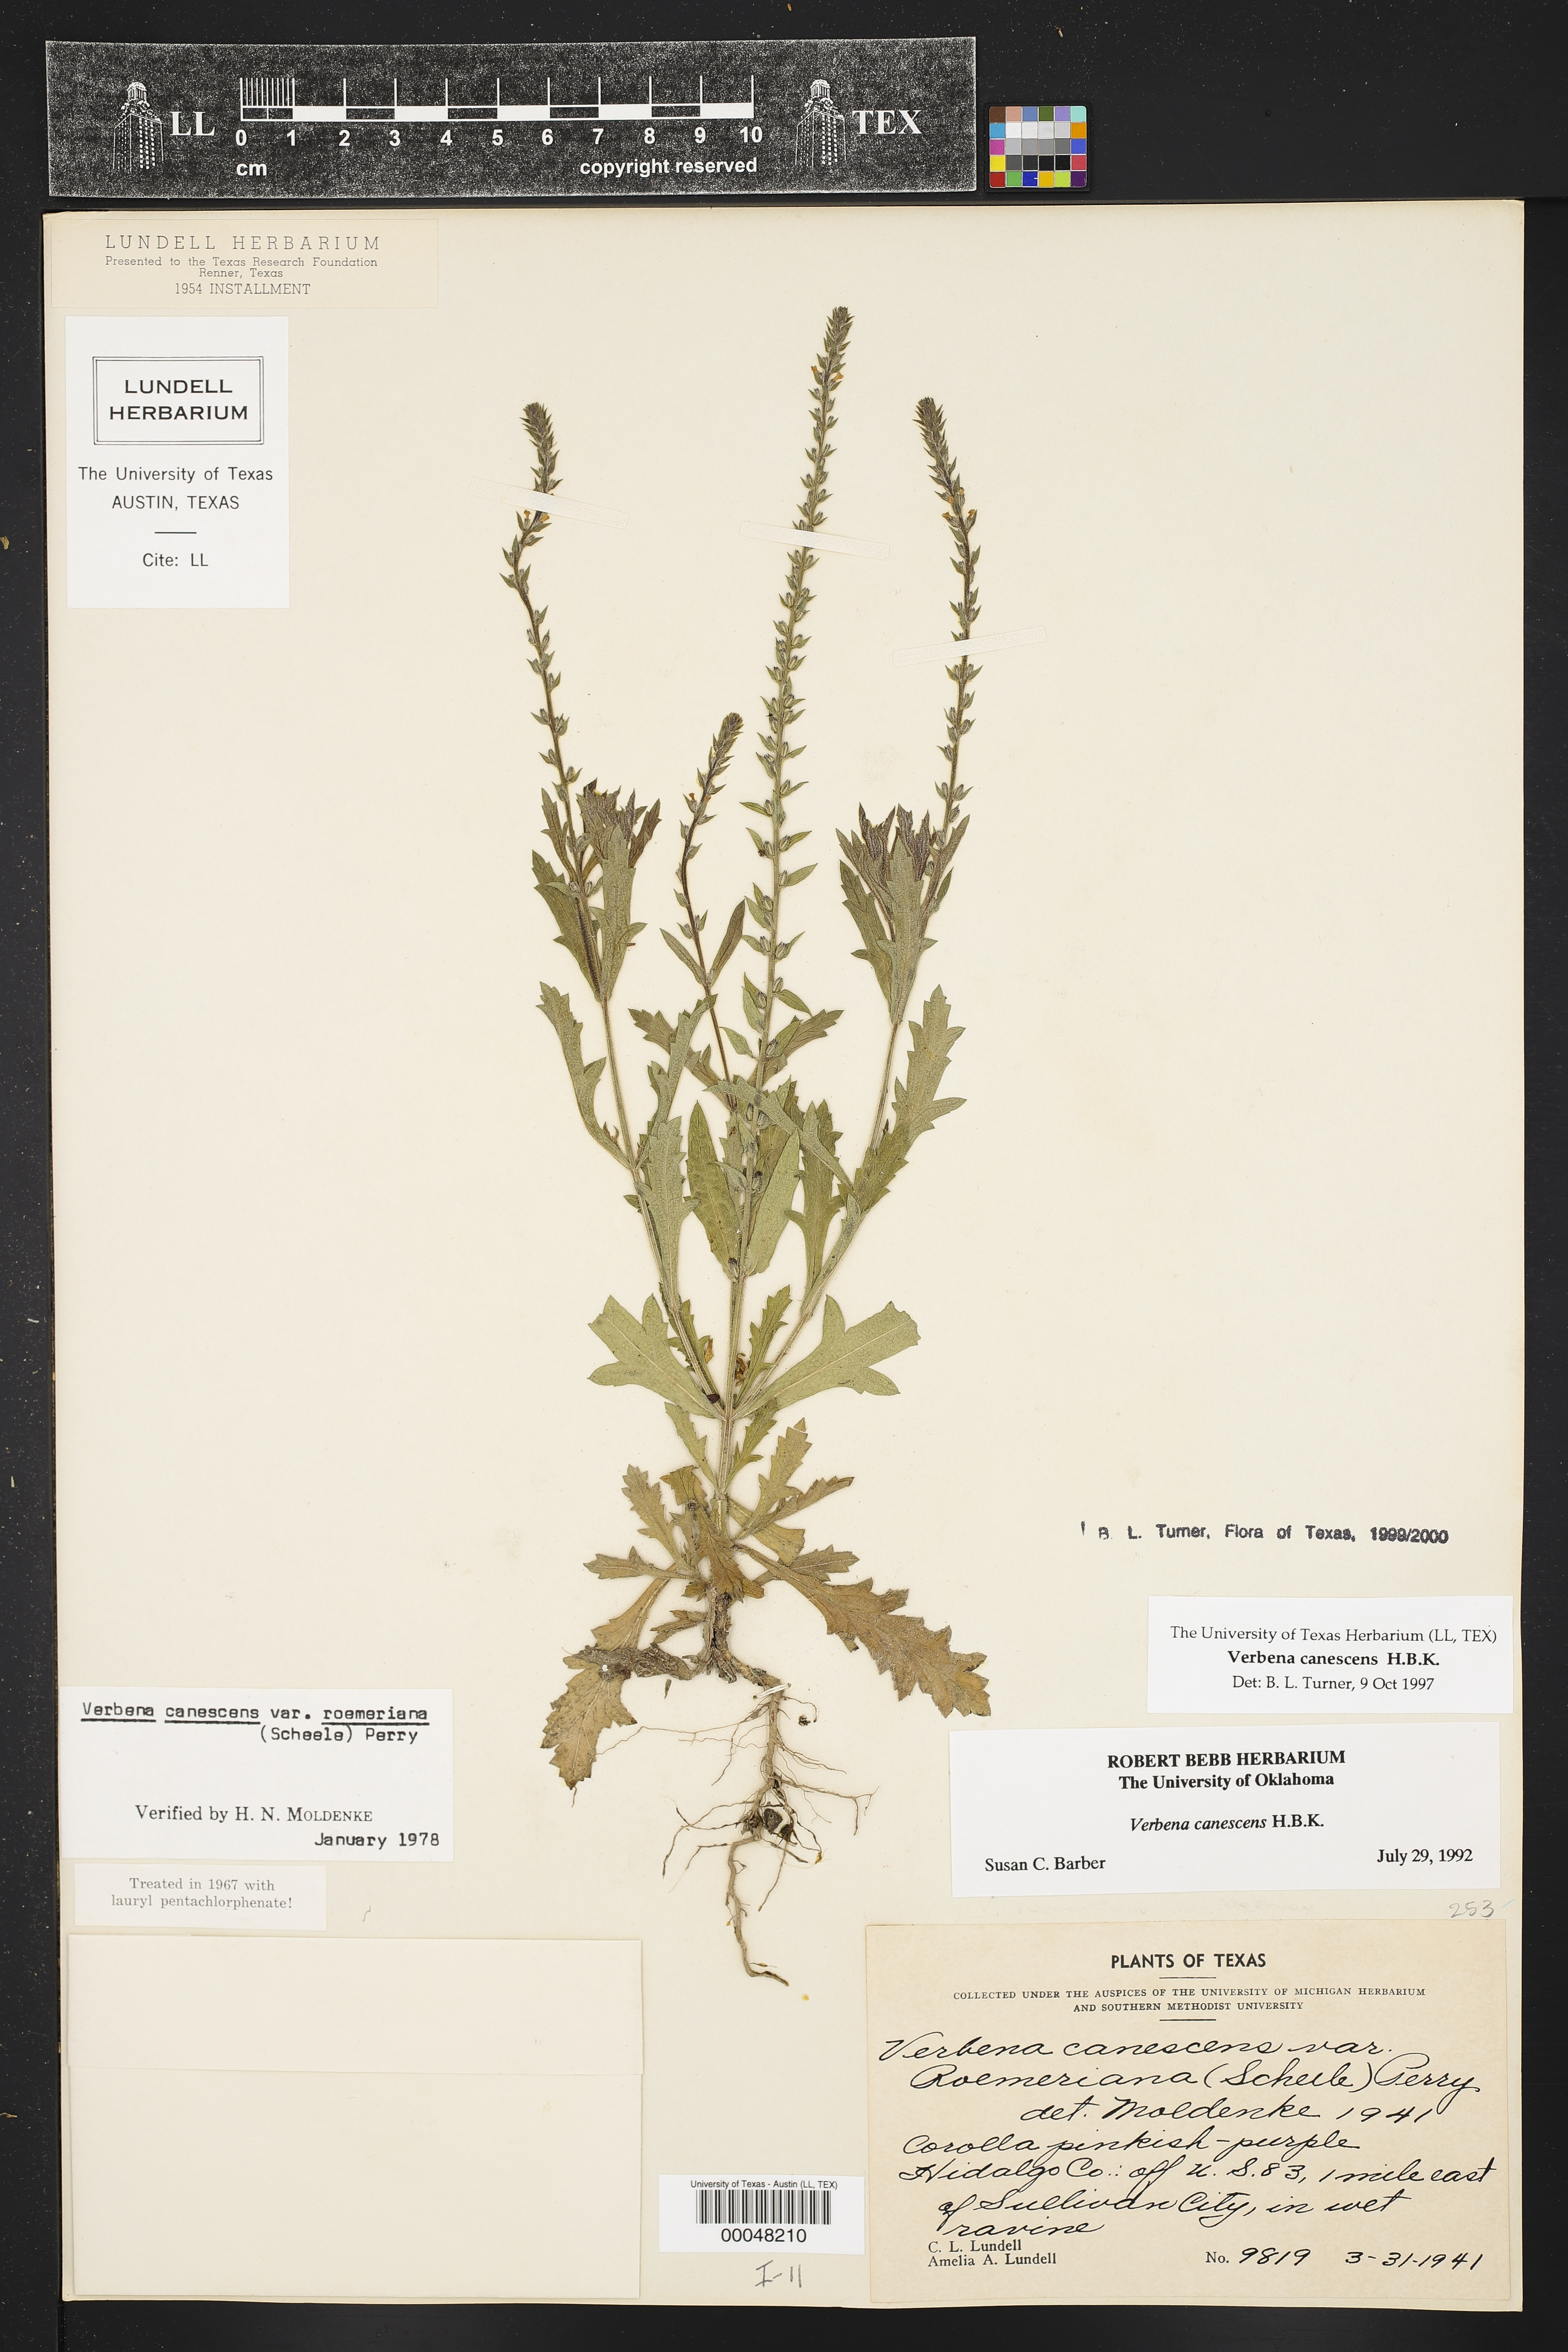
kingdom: Plantae
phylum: Tracheophyta
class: Magnoliopsida
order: Lamiales
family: Verbenaceae
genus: Verbena
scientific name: Verbena canescens
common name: Gray vervain
